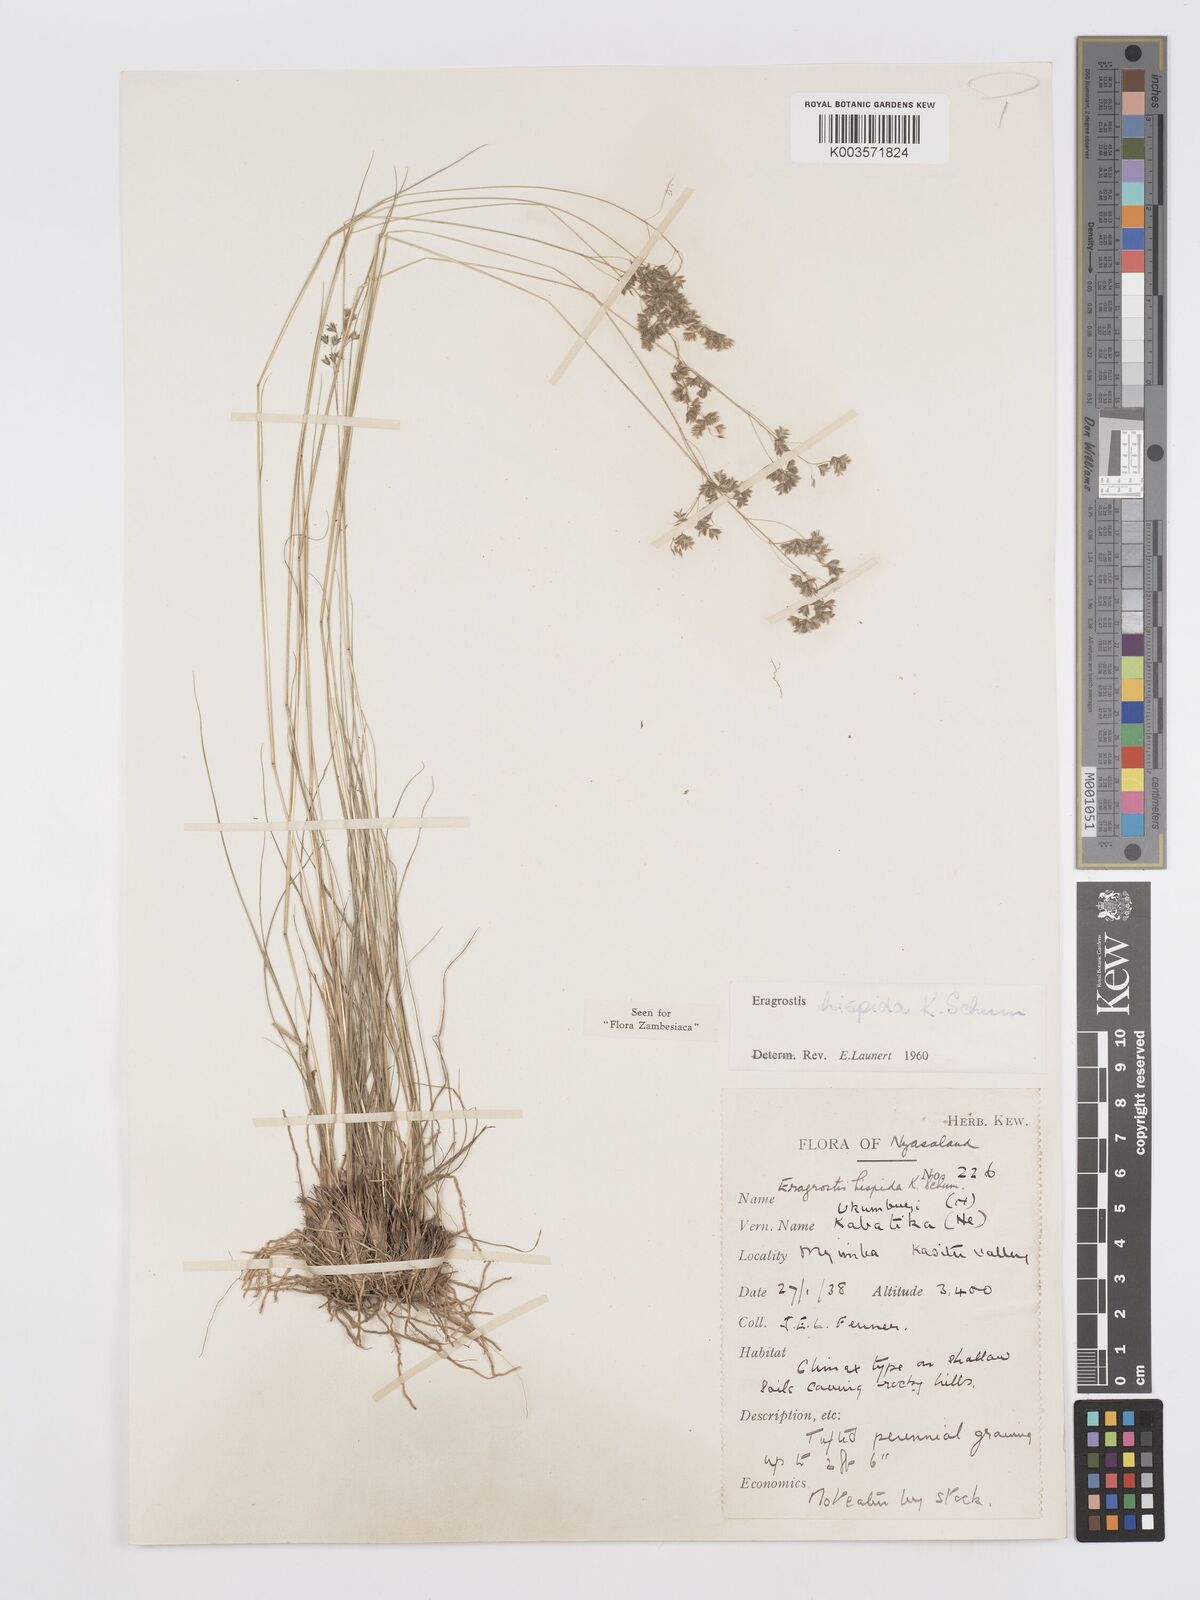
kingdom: Plantae
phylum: Tracheophyta
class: Liliopsida
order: Poales
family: Poaceae
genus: Eragrostis
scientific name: Eragrostis hispida
